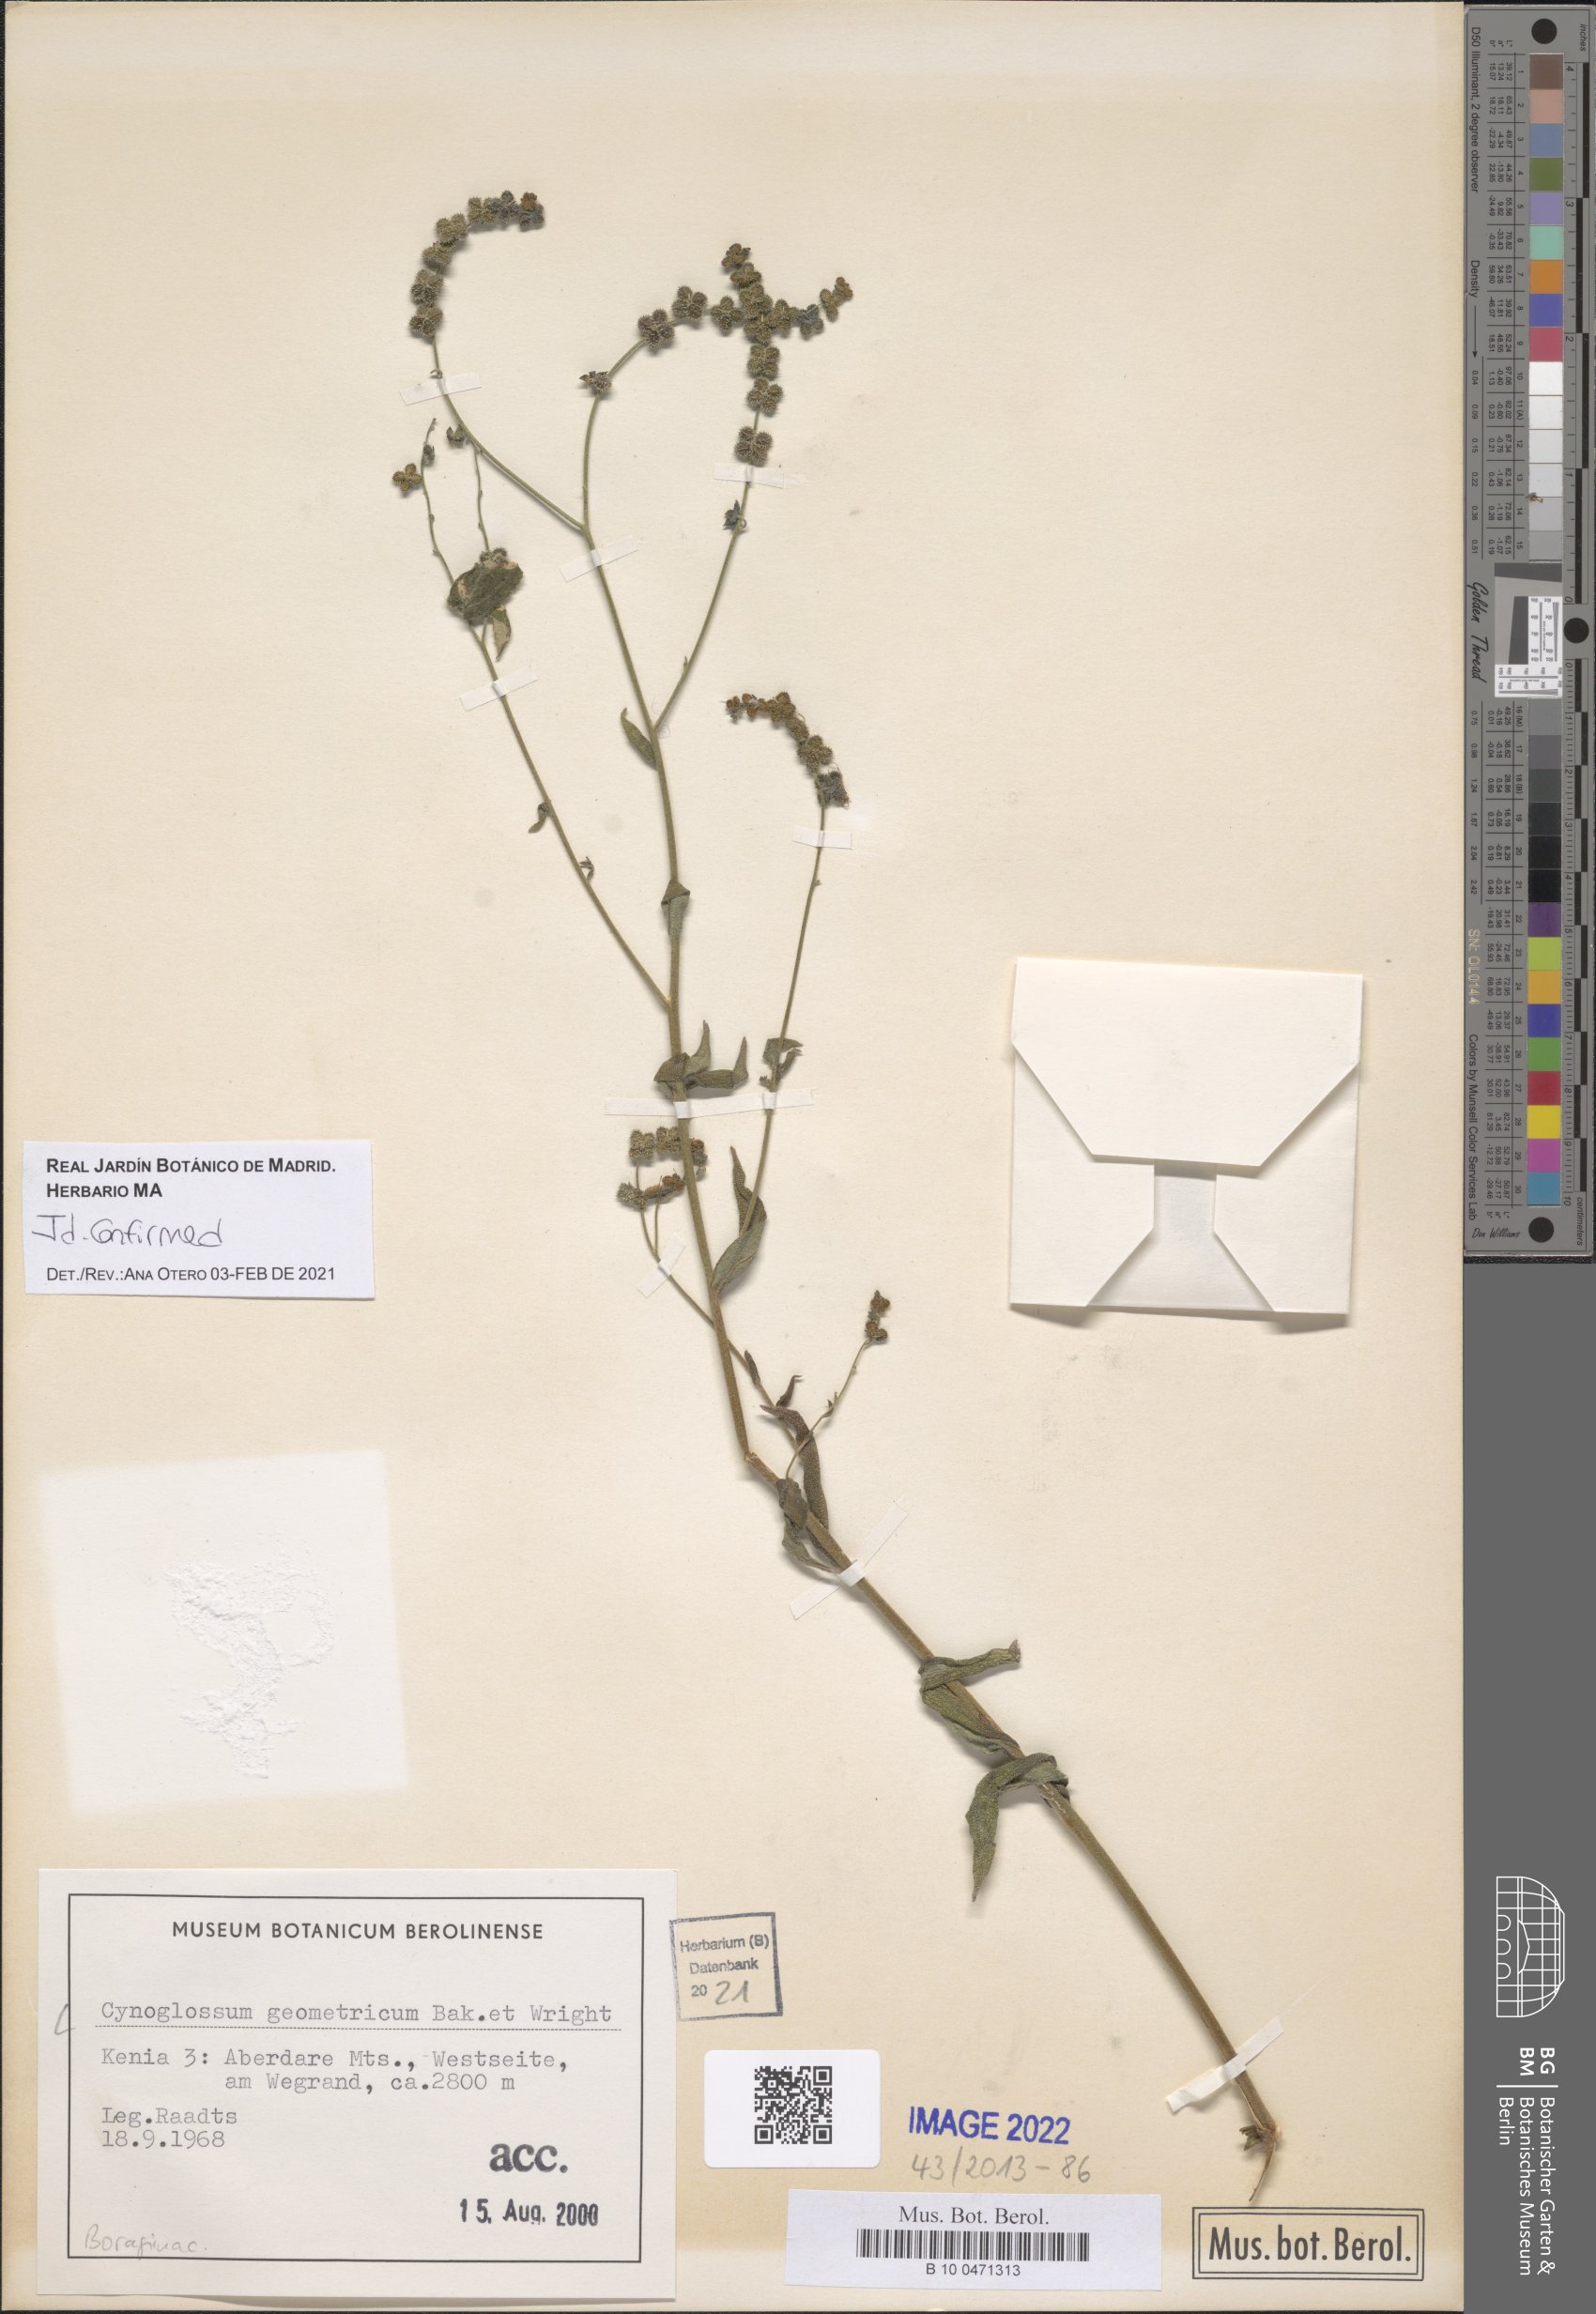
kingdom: Plantae
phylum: Tracheophyta
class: Magnoliopsida
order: Boraginales
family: Boraginaceae
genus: Paracynoglossum
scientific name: Paracynoglossum geometricum
